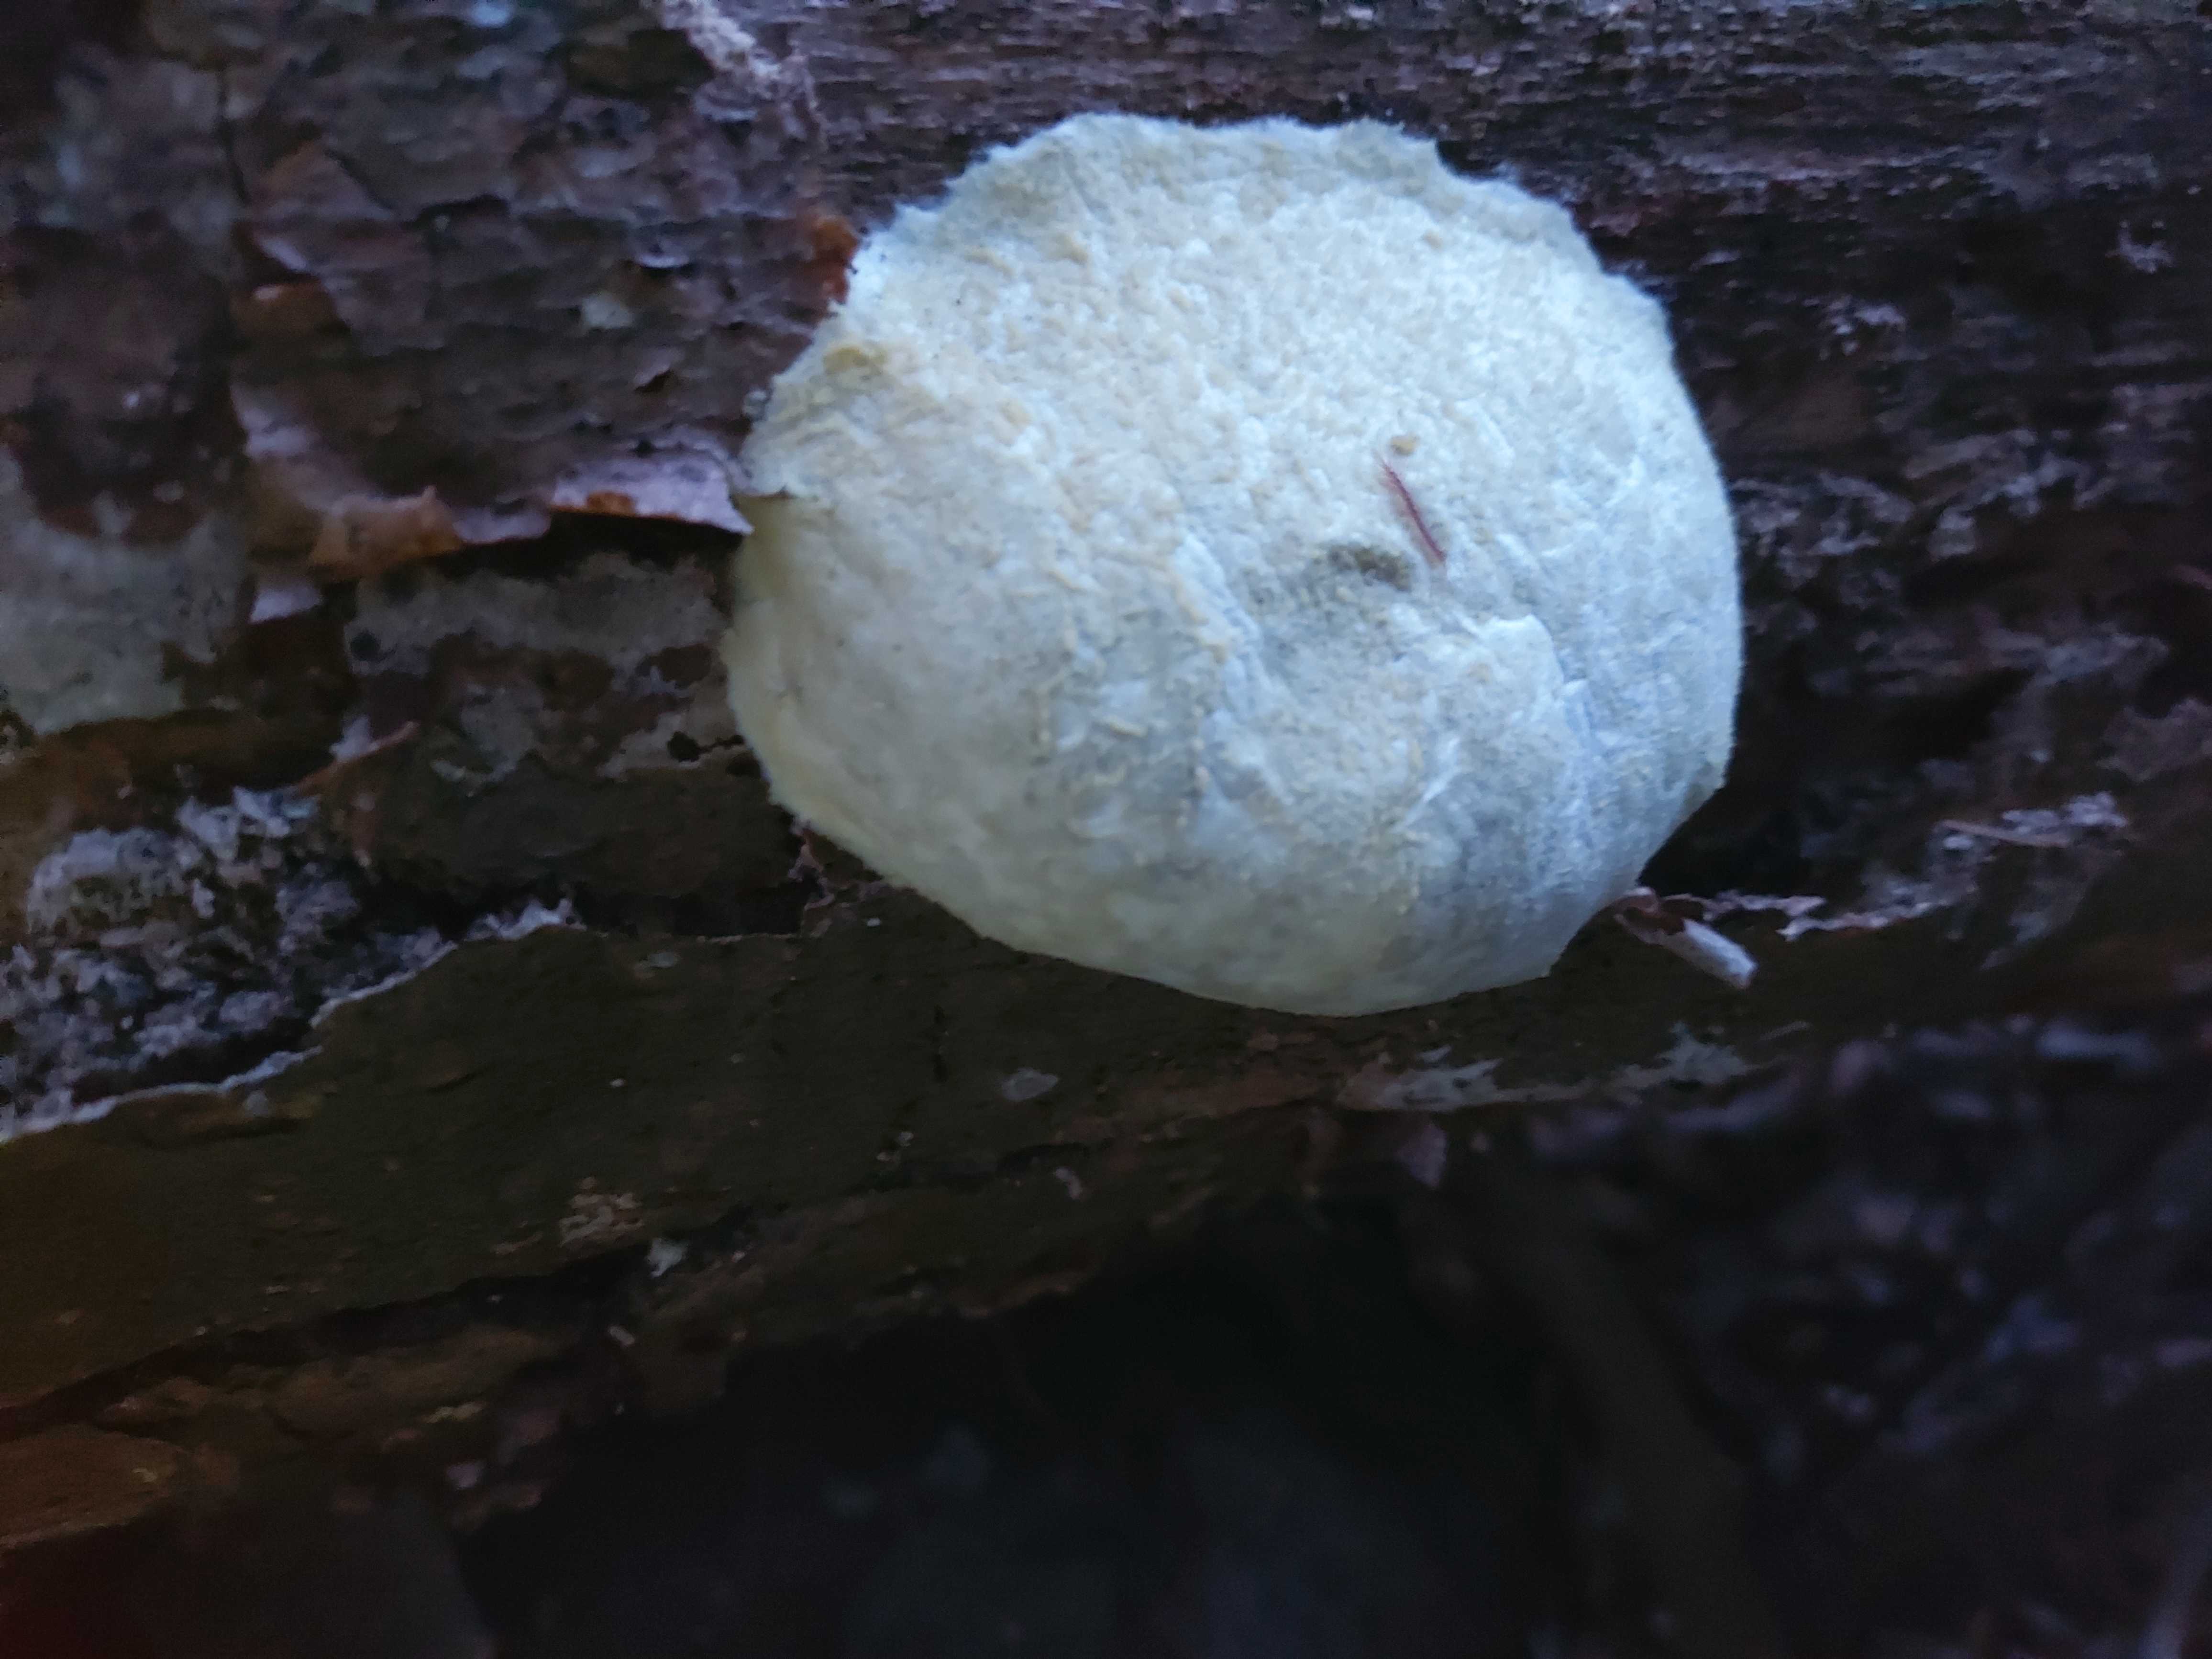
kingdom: Protozoa
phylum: Mycetozoa
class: Myxomycetes
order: Cribrariales
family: Tubiferaceae
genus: Reticularia
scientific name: Reticularia lycoperdon
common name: skinnende støvpude
